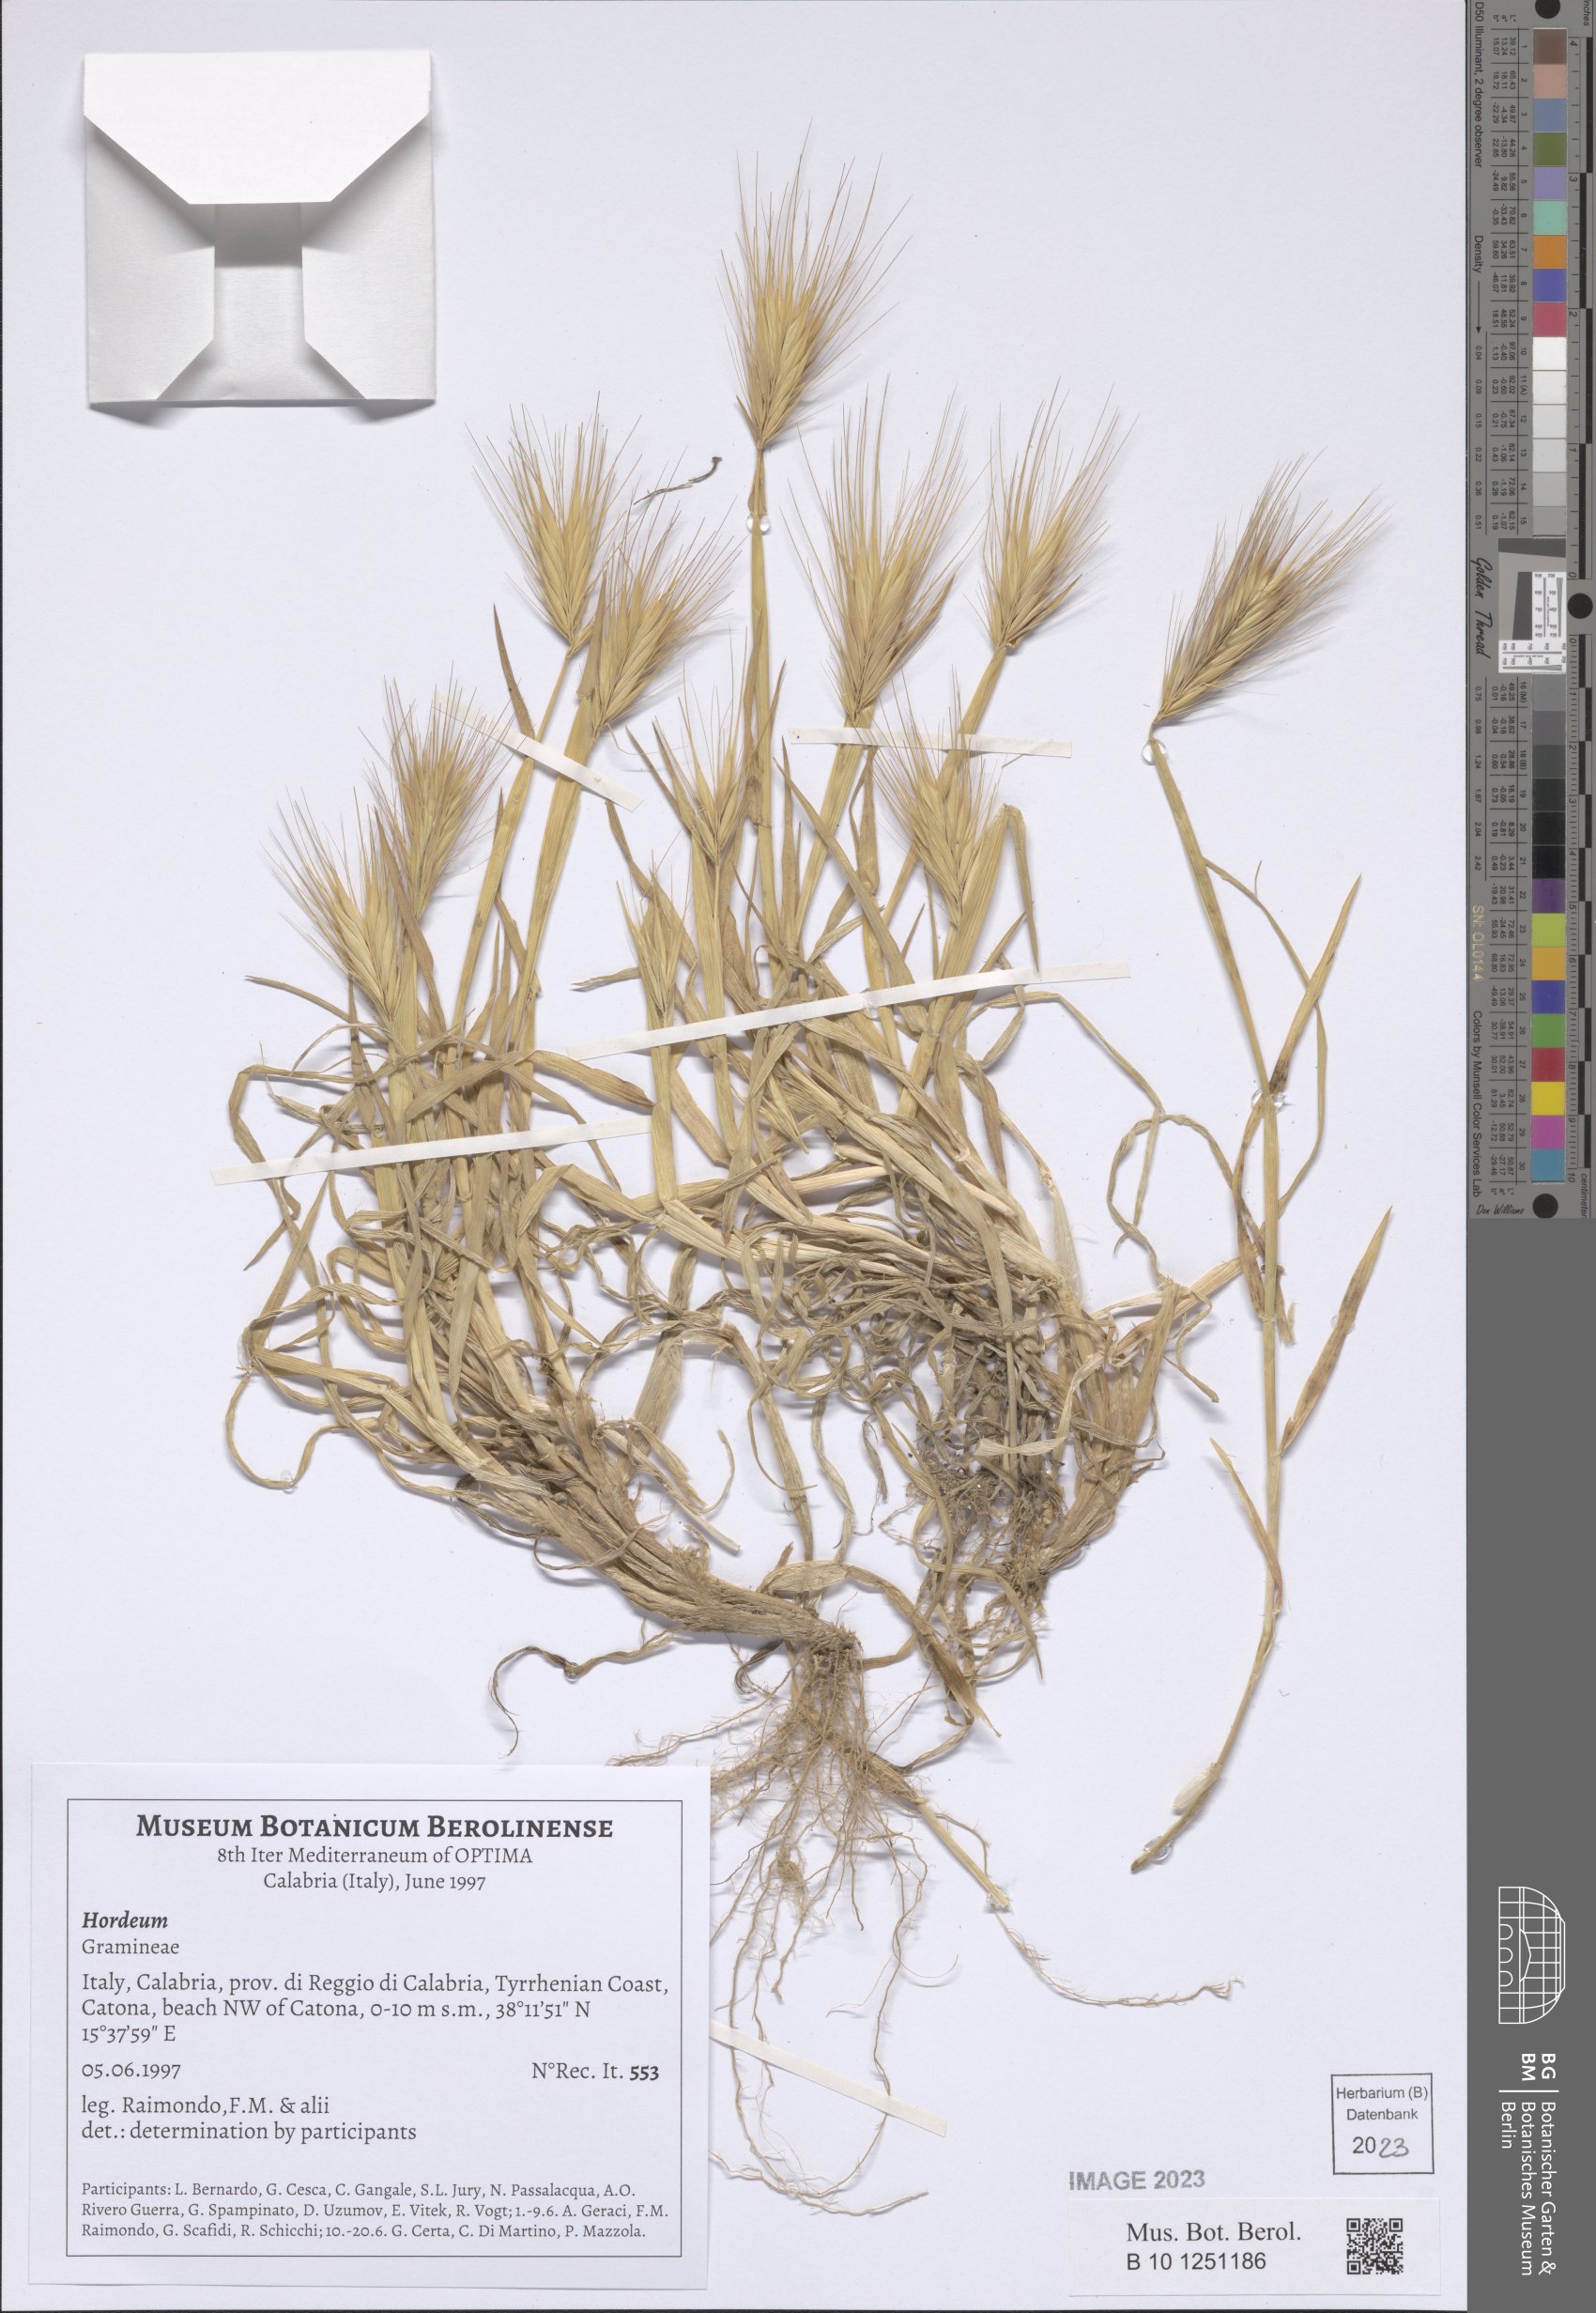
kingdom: Plantae
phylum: Tracheophyta
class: Liliopsida
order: Poales
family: Poaceae
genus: Hordeum
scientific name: Hordeum
